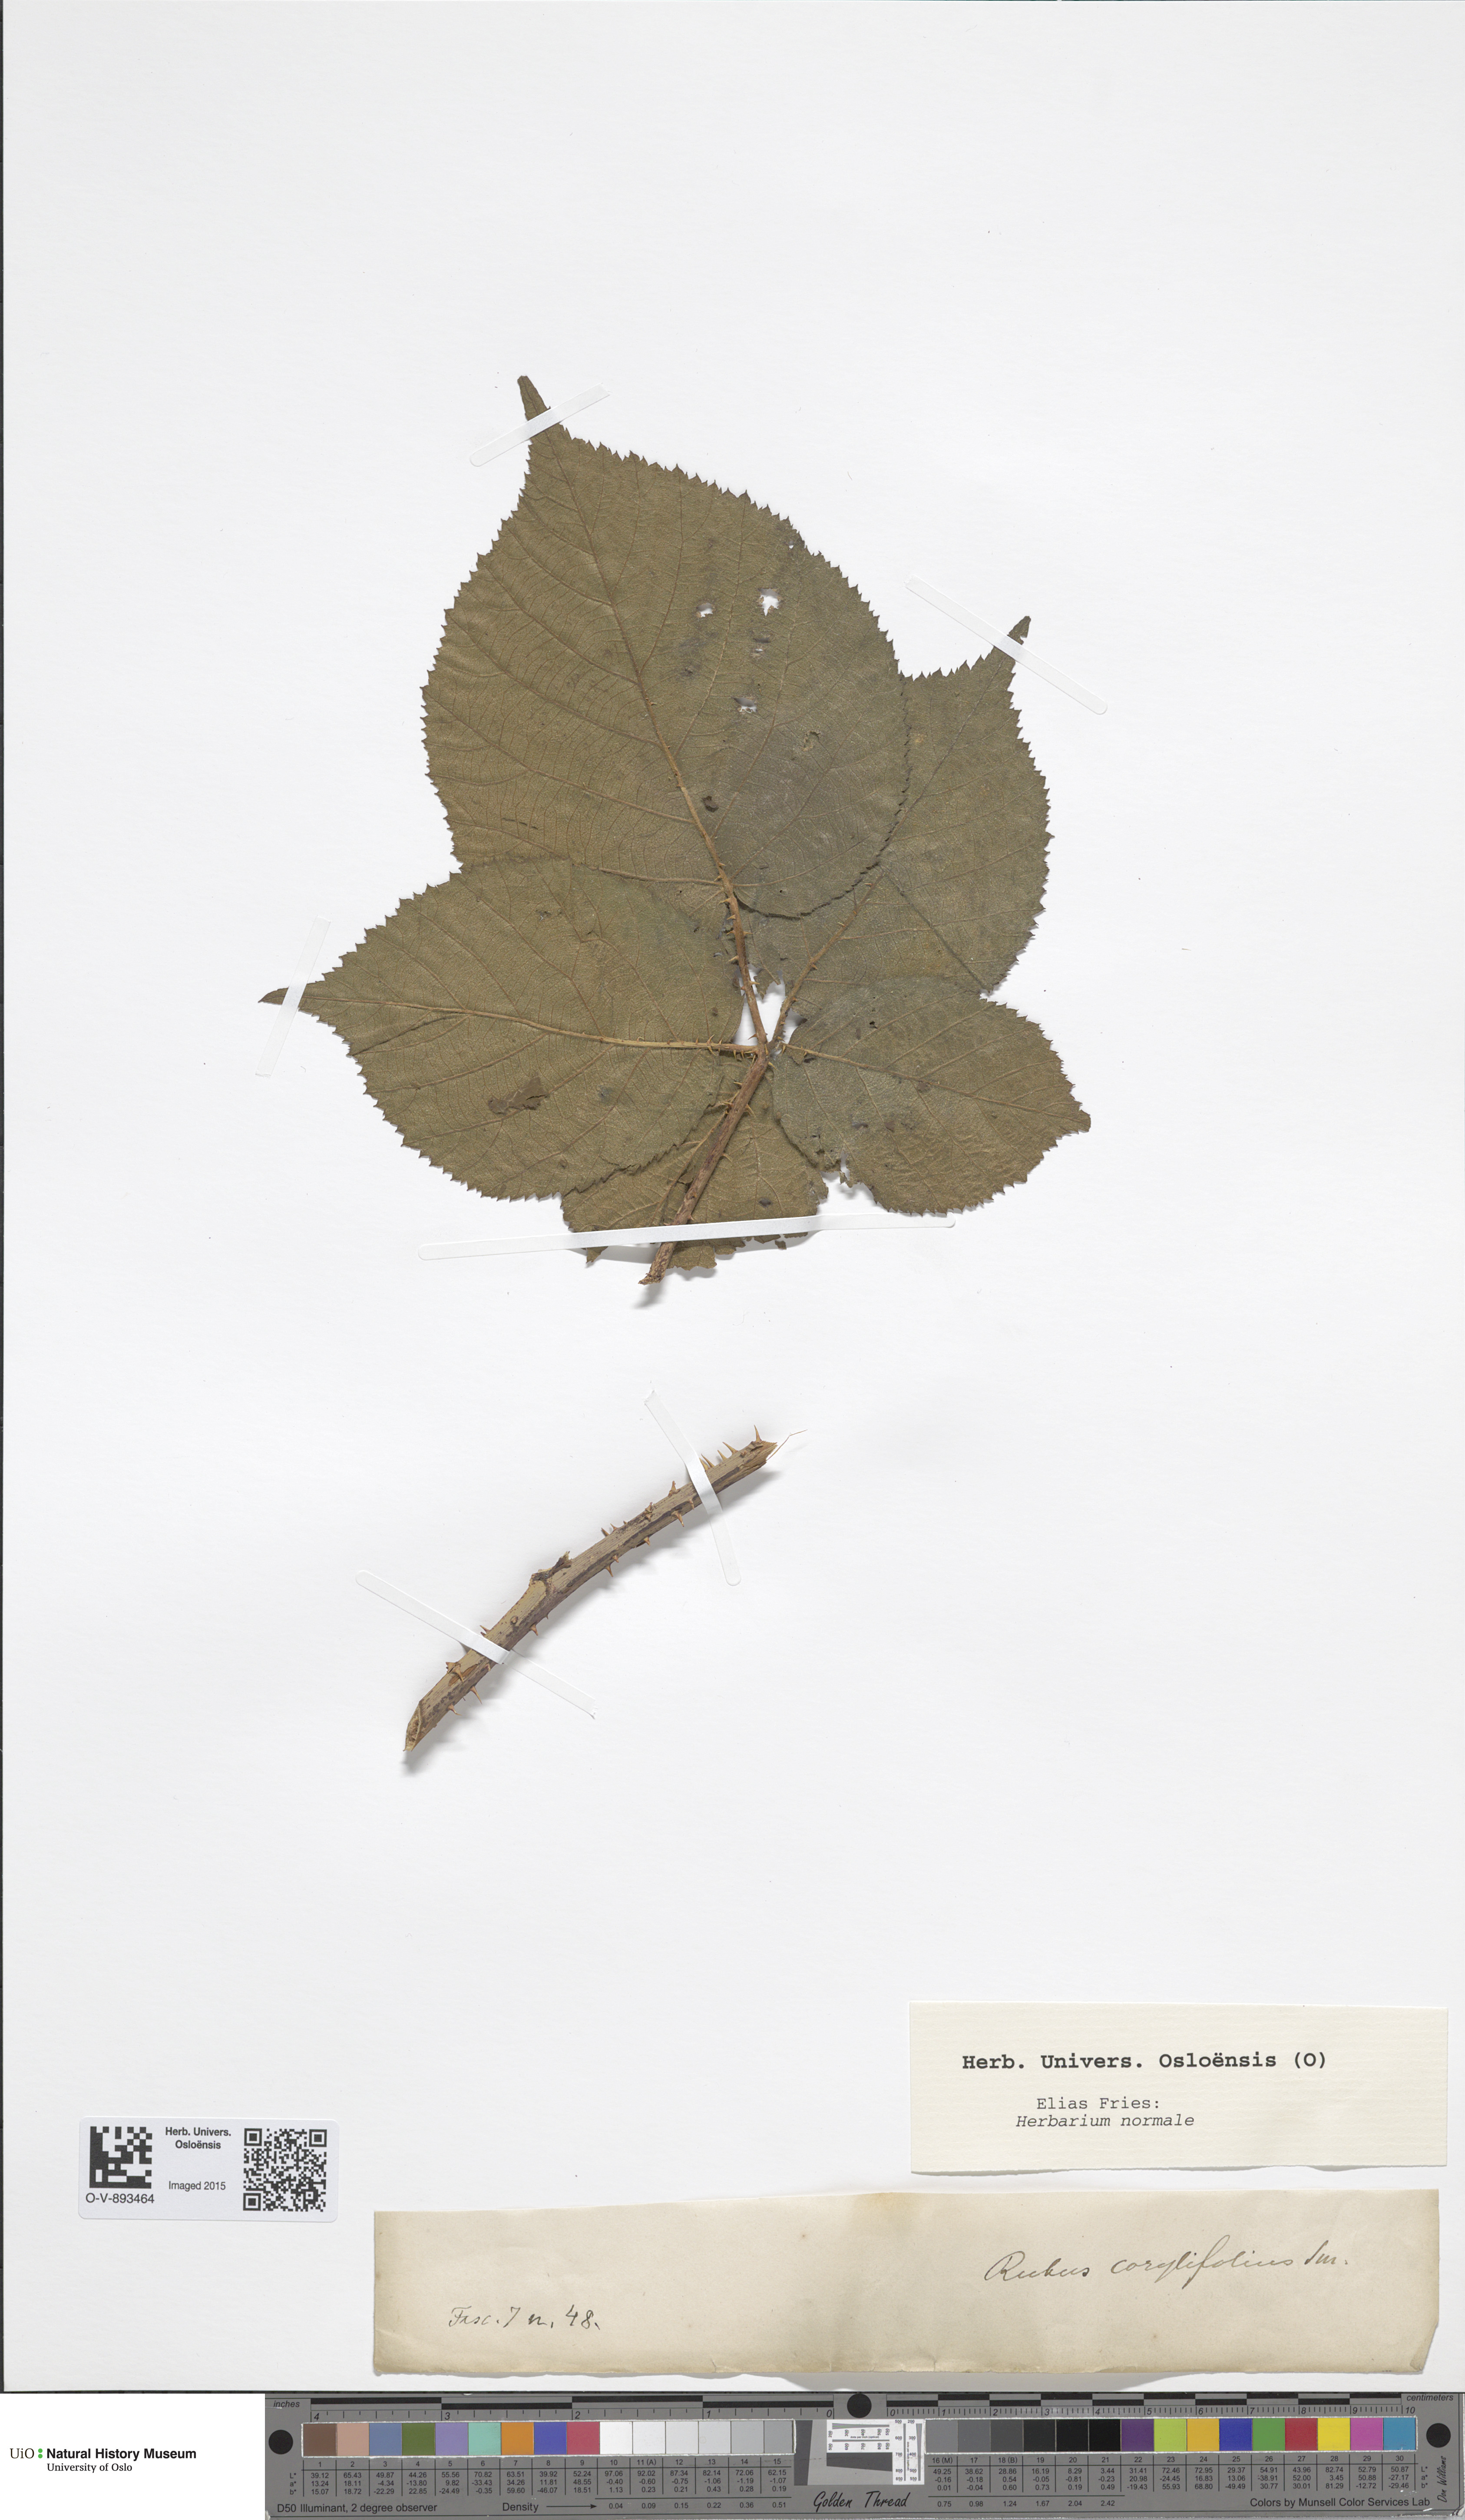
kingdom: Plantae
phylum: Tracheophyta
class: Magnoliopsida
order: Rosales
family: Rosaceae
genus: Rubus
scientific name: Rubus
